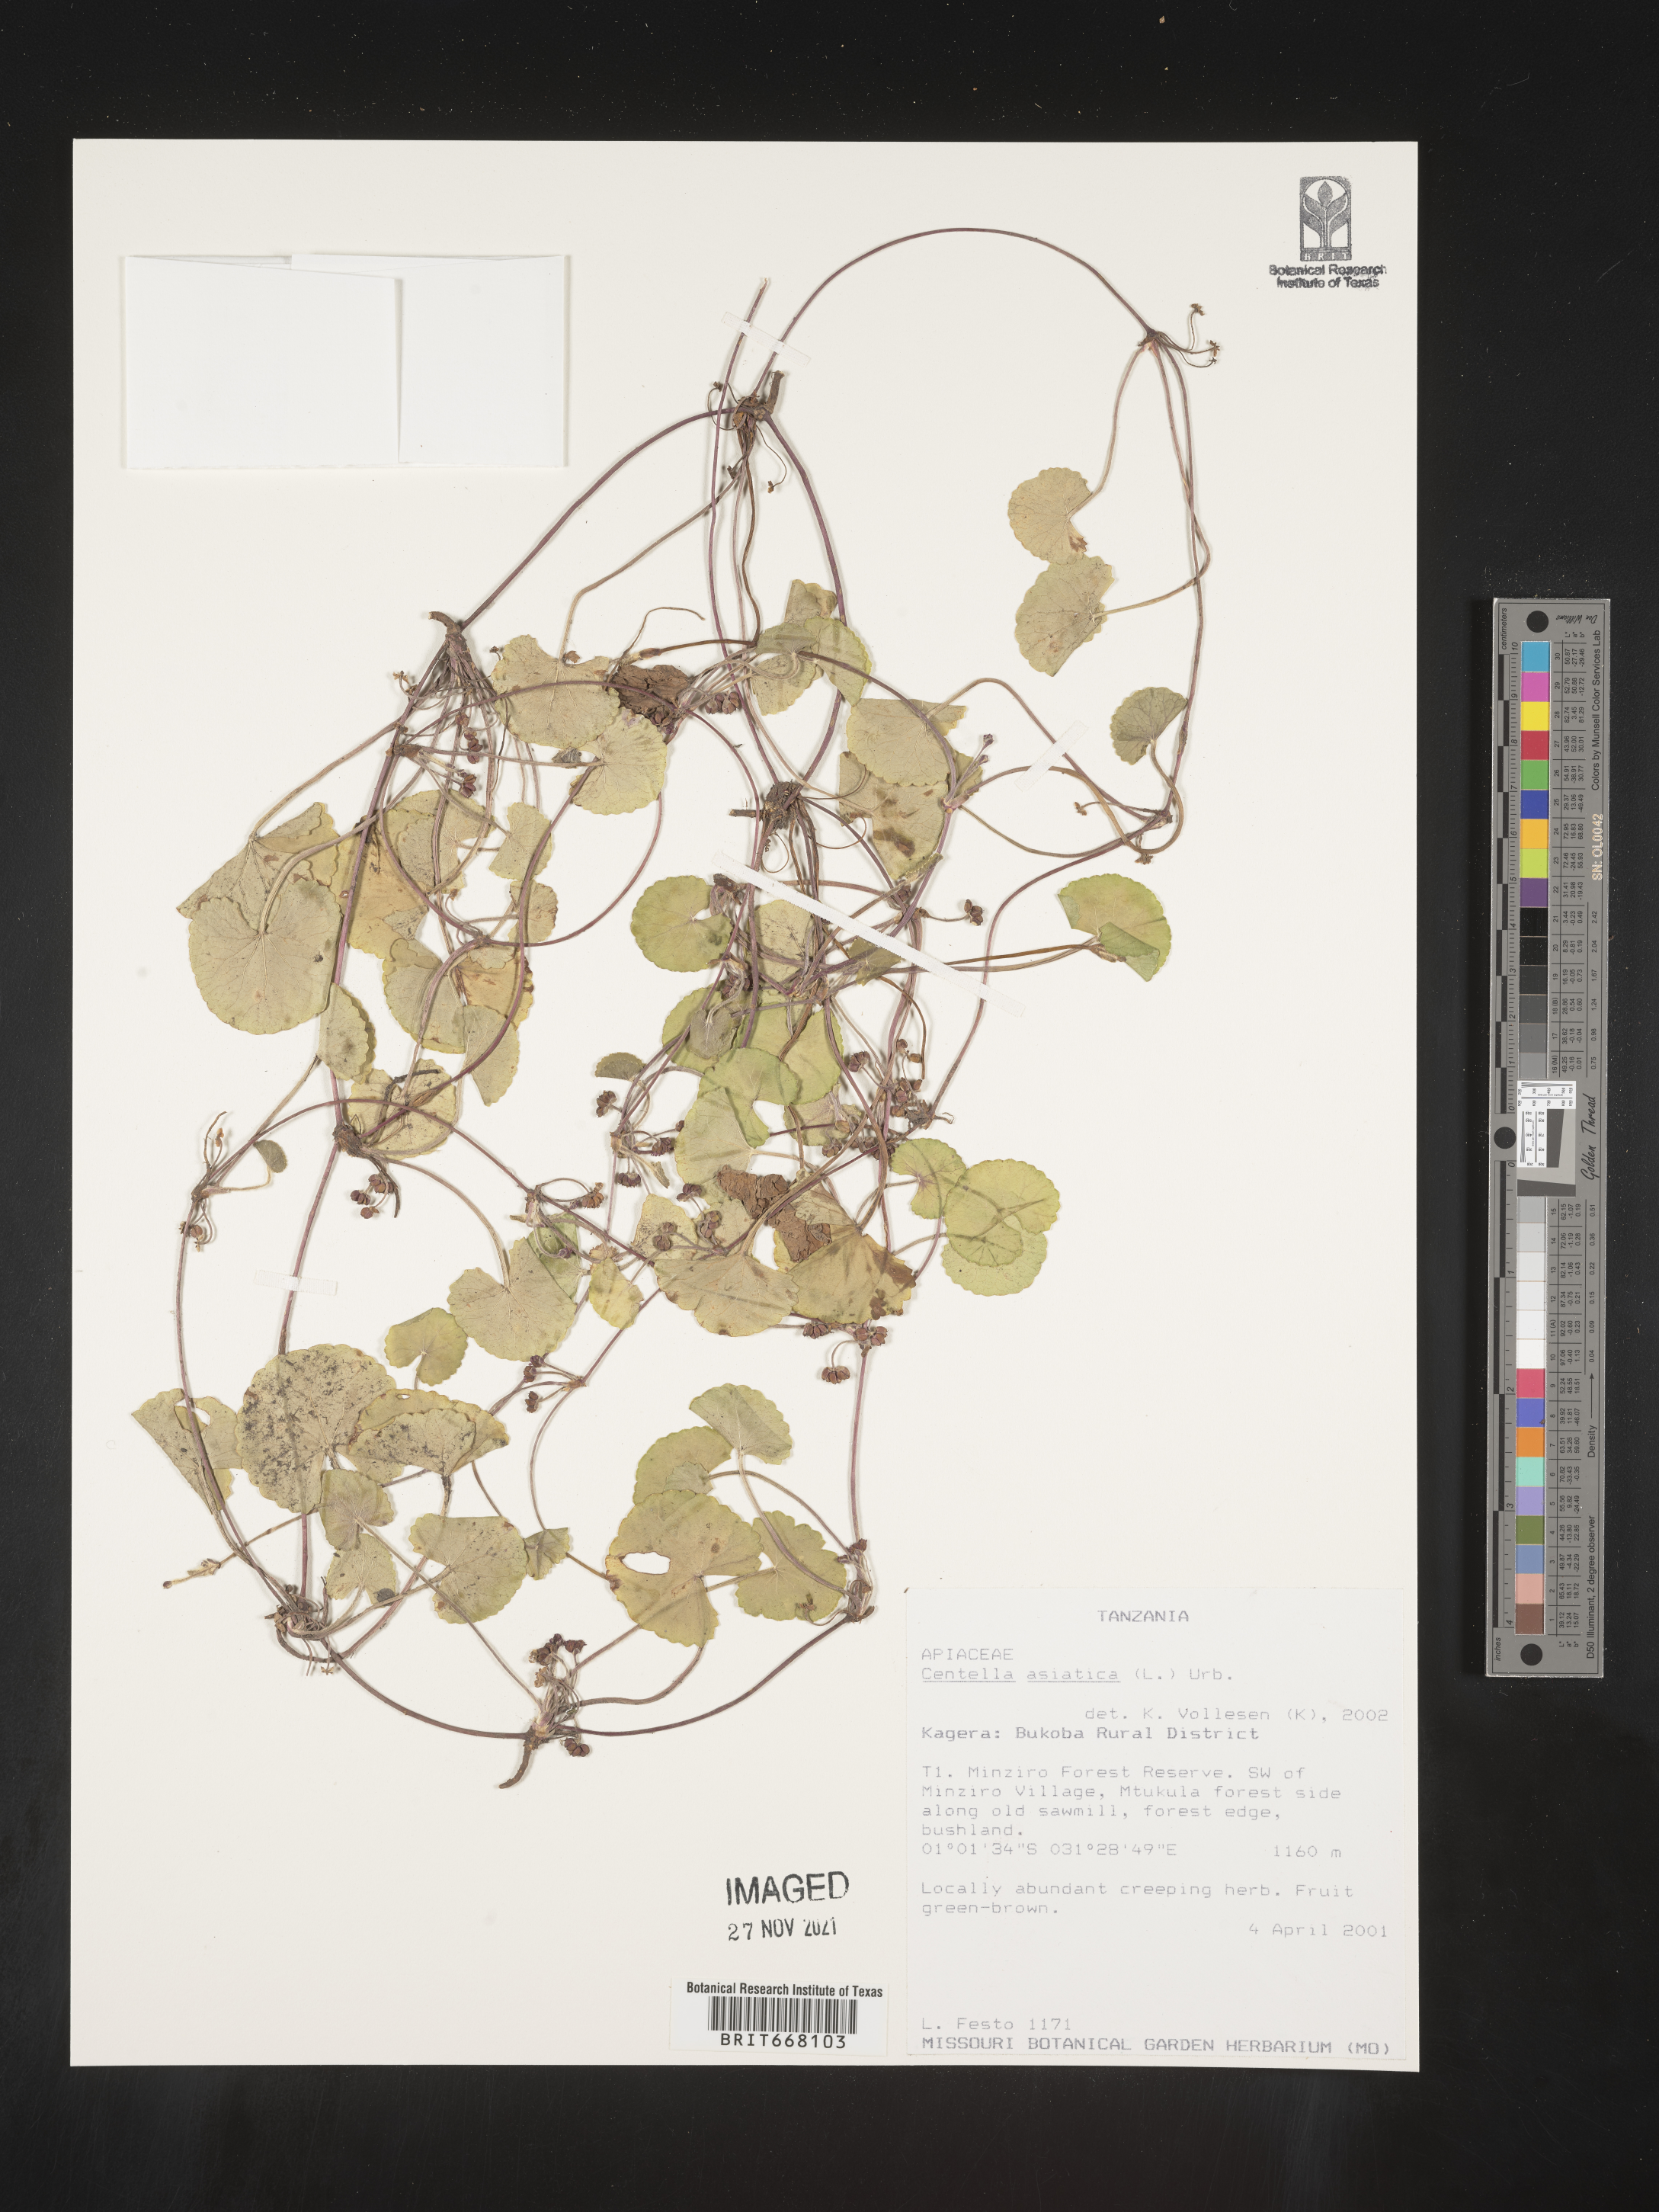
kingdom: Plantae
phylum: Tracheophyta
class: Magnoliopsida
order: Apiales
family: Apiaceae
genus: Centella
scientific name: Centella
